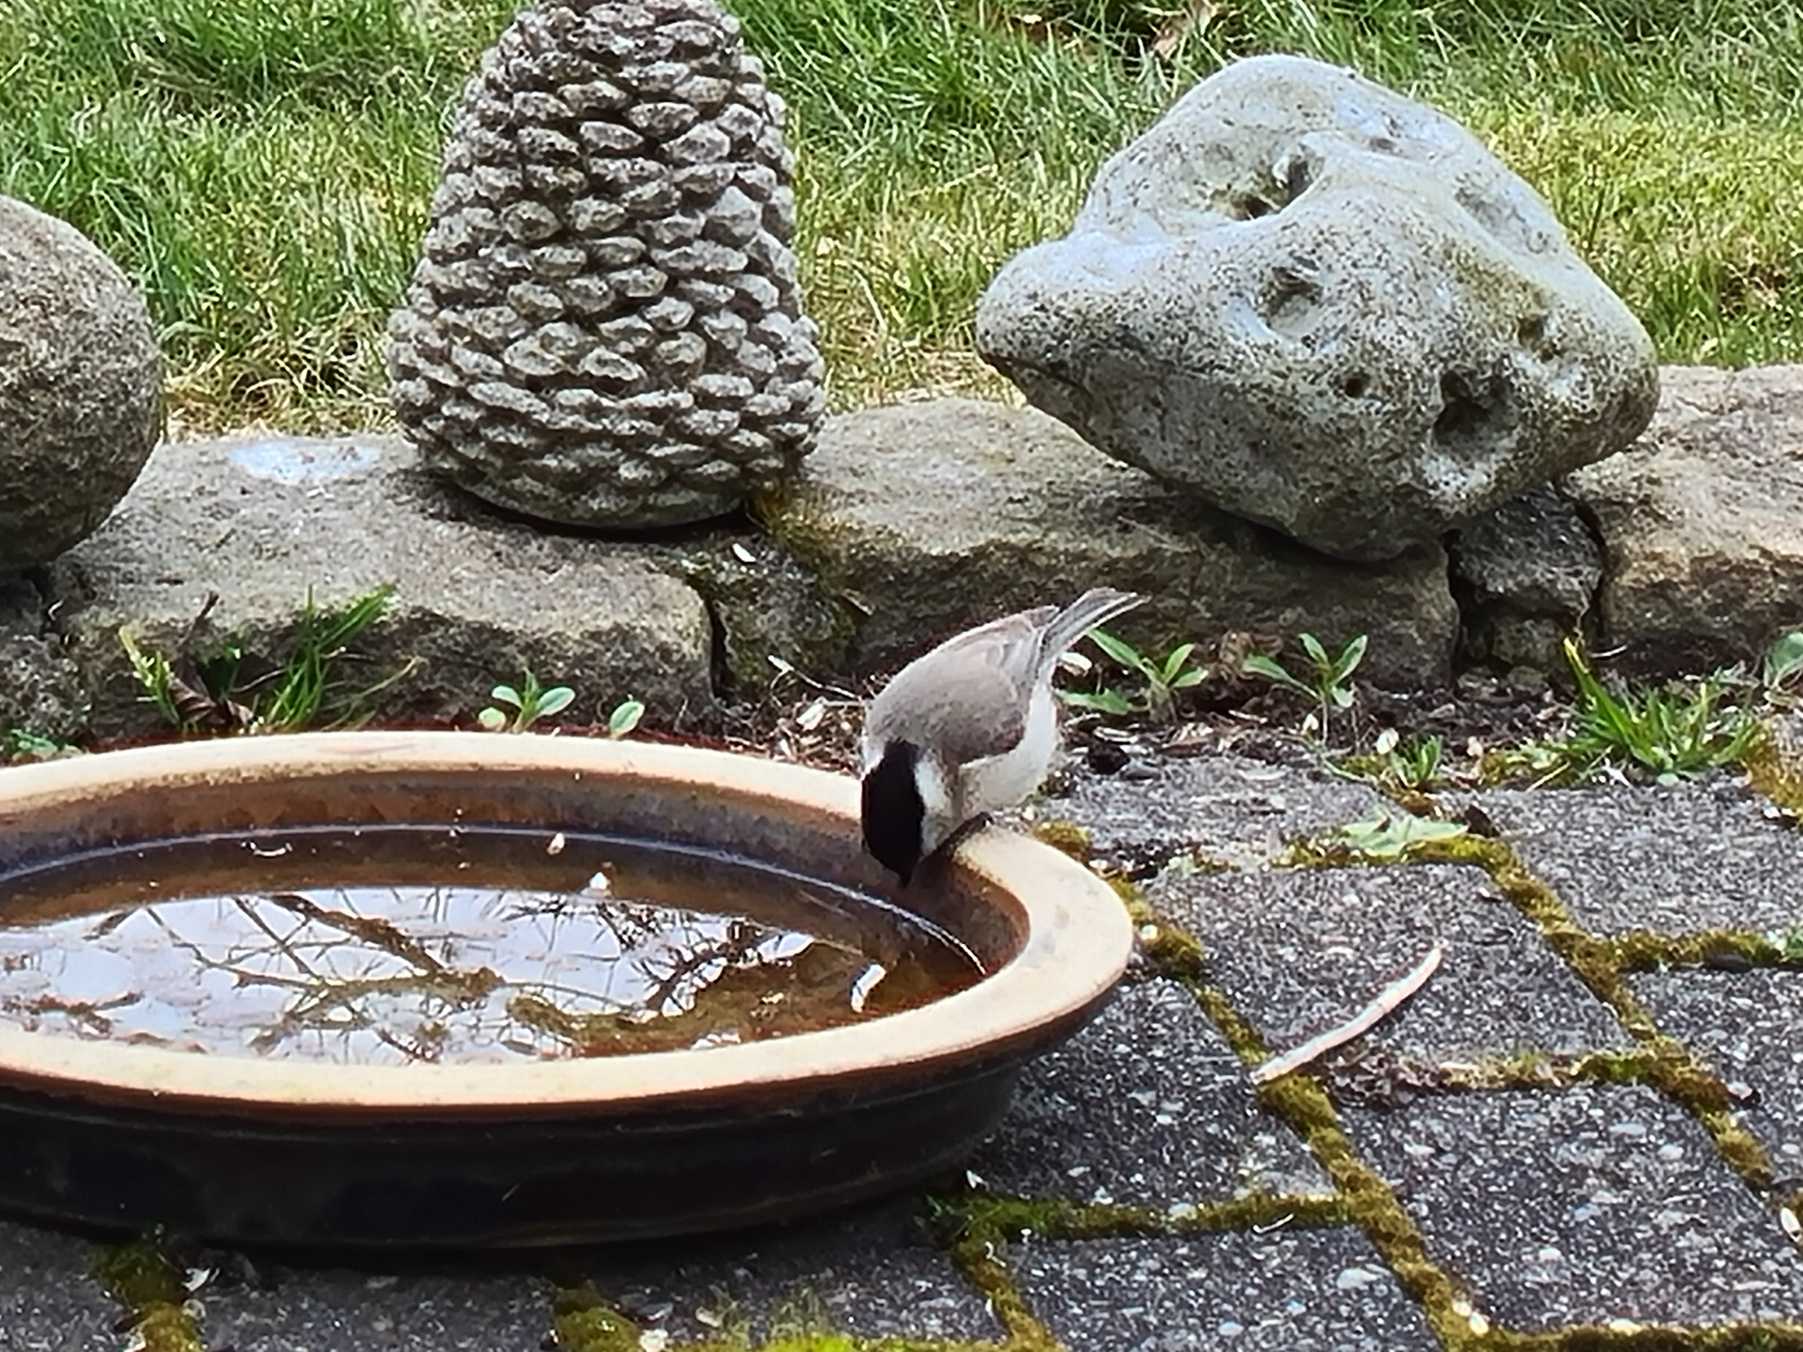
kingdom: Animalia
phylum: Chordata
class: Aves
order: Passeriformes
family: Paridae
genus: Poecile
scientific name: Poecile palustris
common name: Sumpmejse
